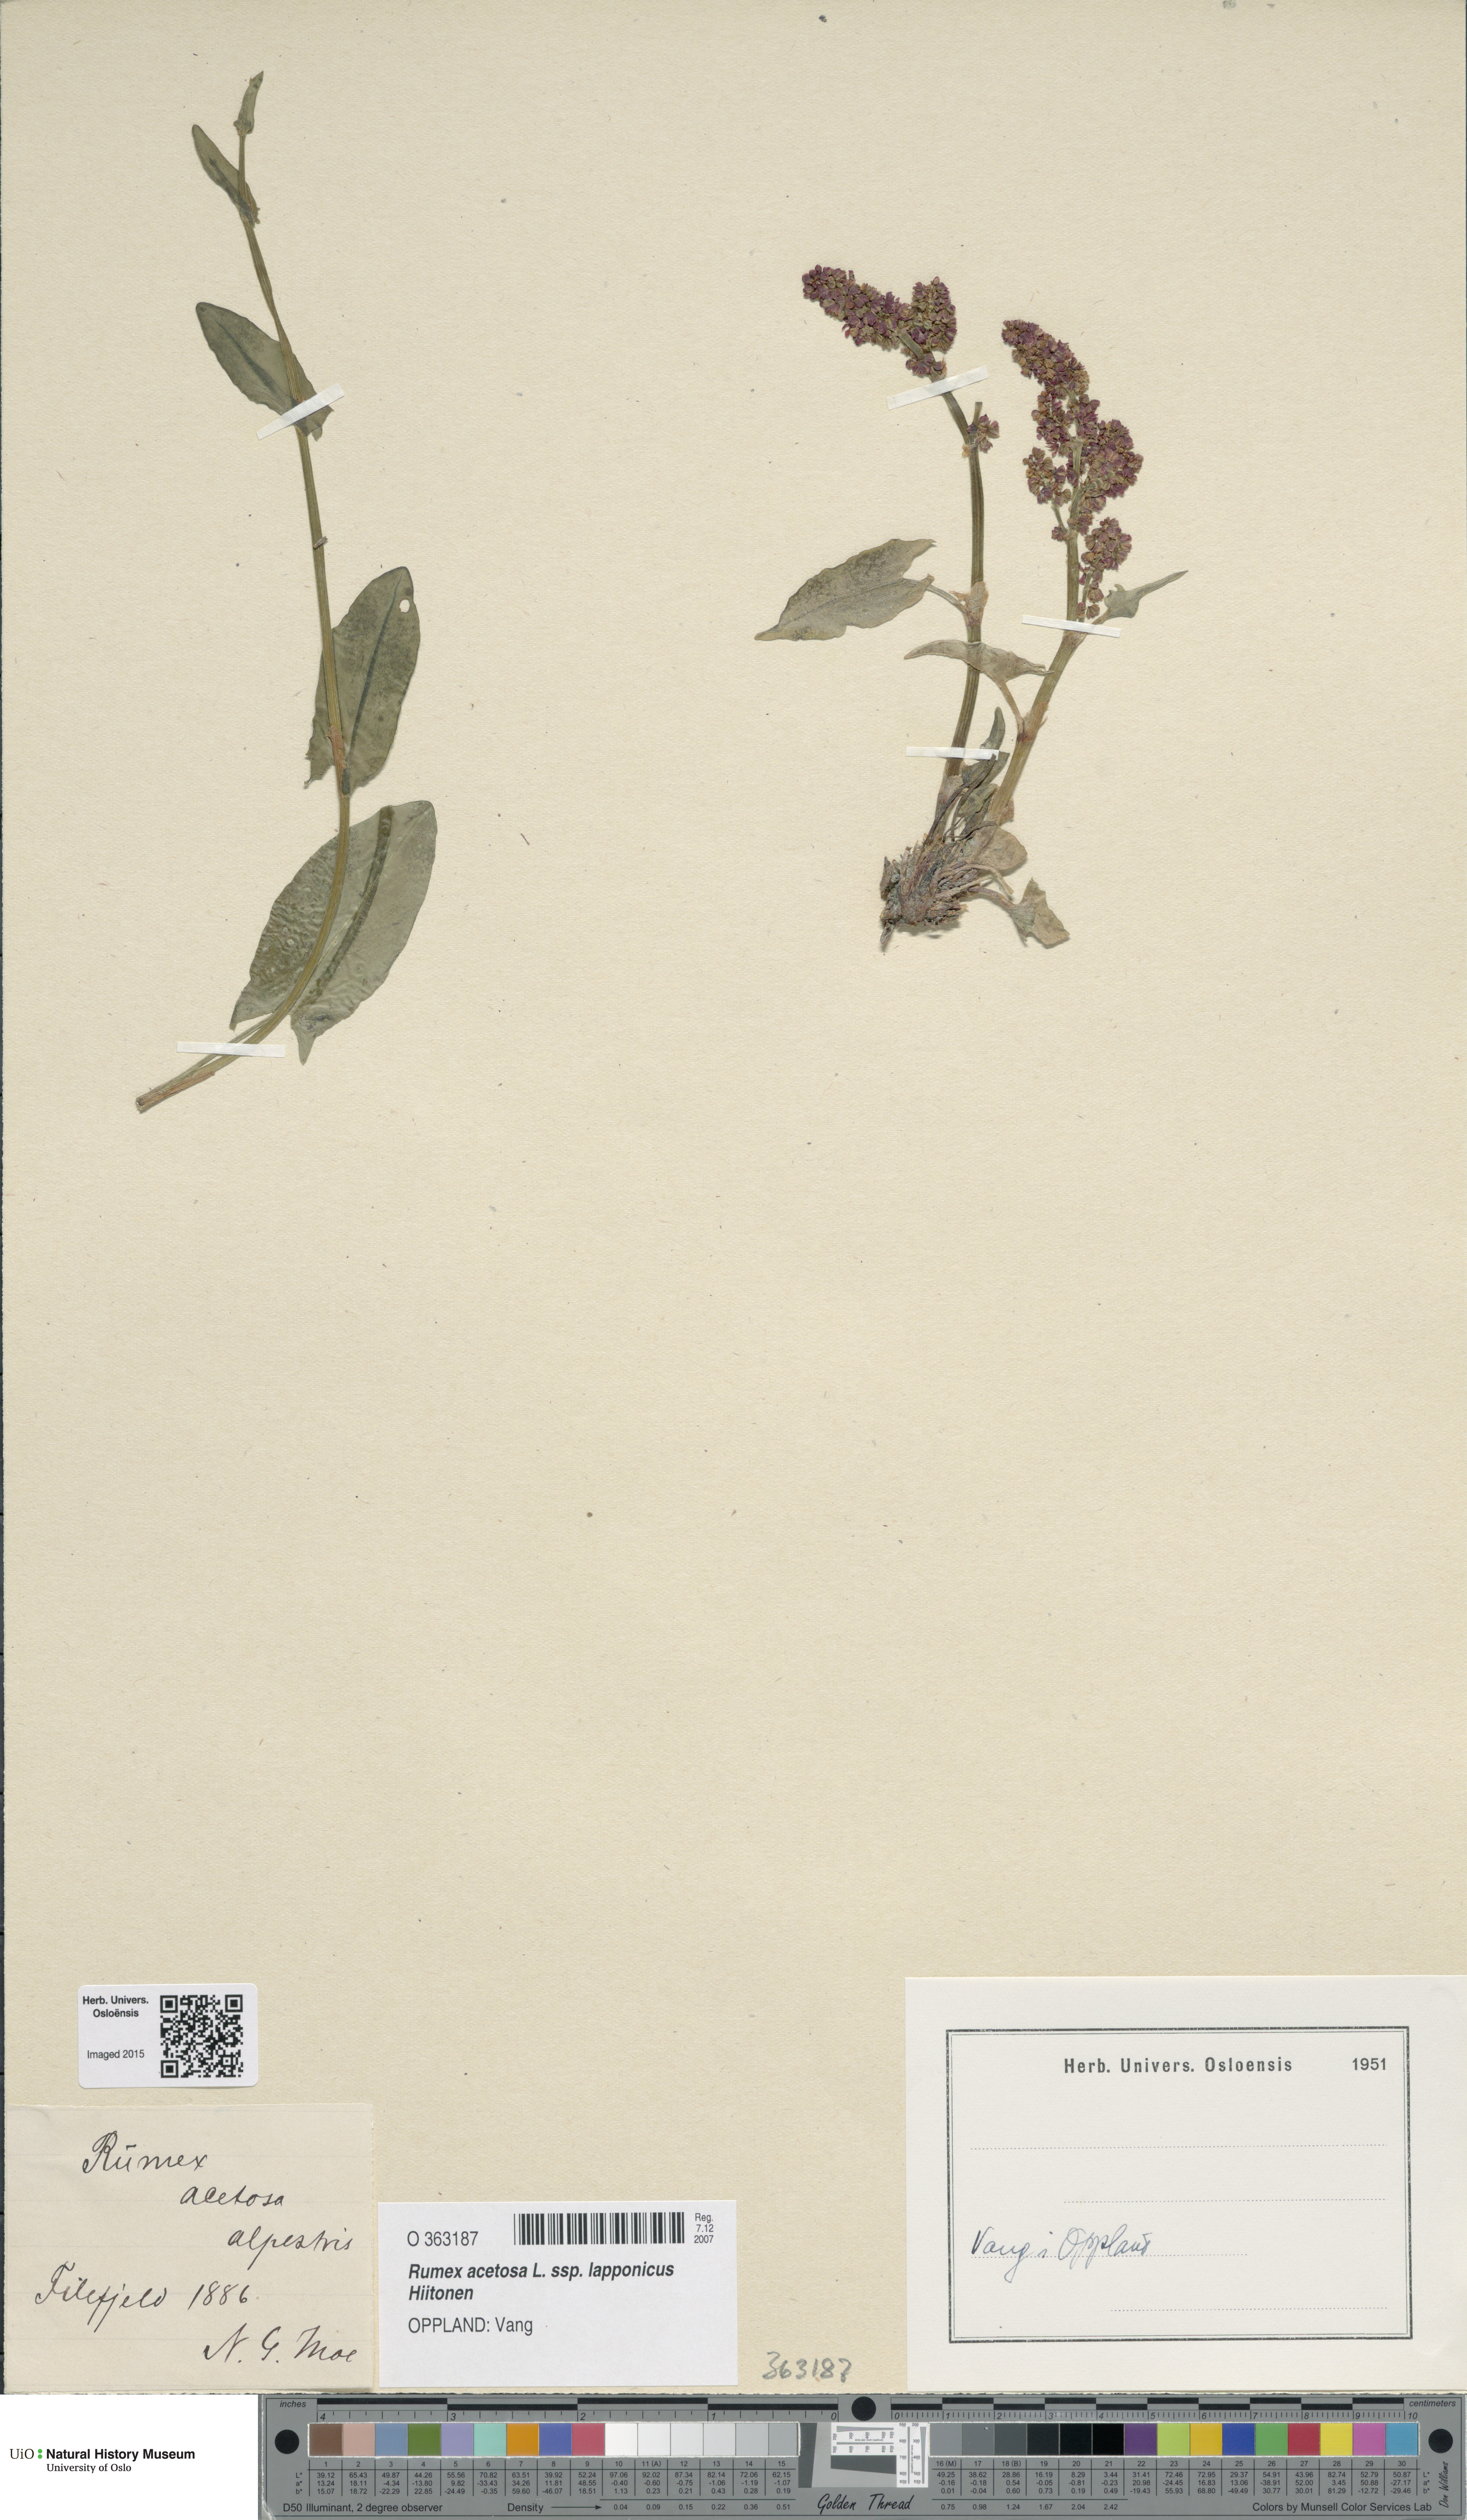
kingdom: Plantae
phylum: Tracheophyta
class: Magnoliopsida
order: Caryophyllales
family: Polygonaceae
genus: Rumex
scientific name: Rumex arifolius
